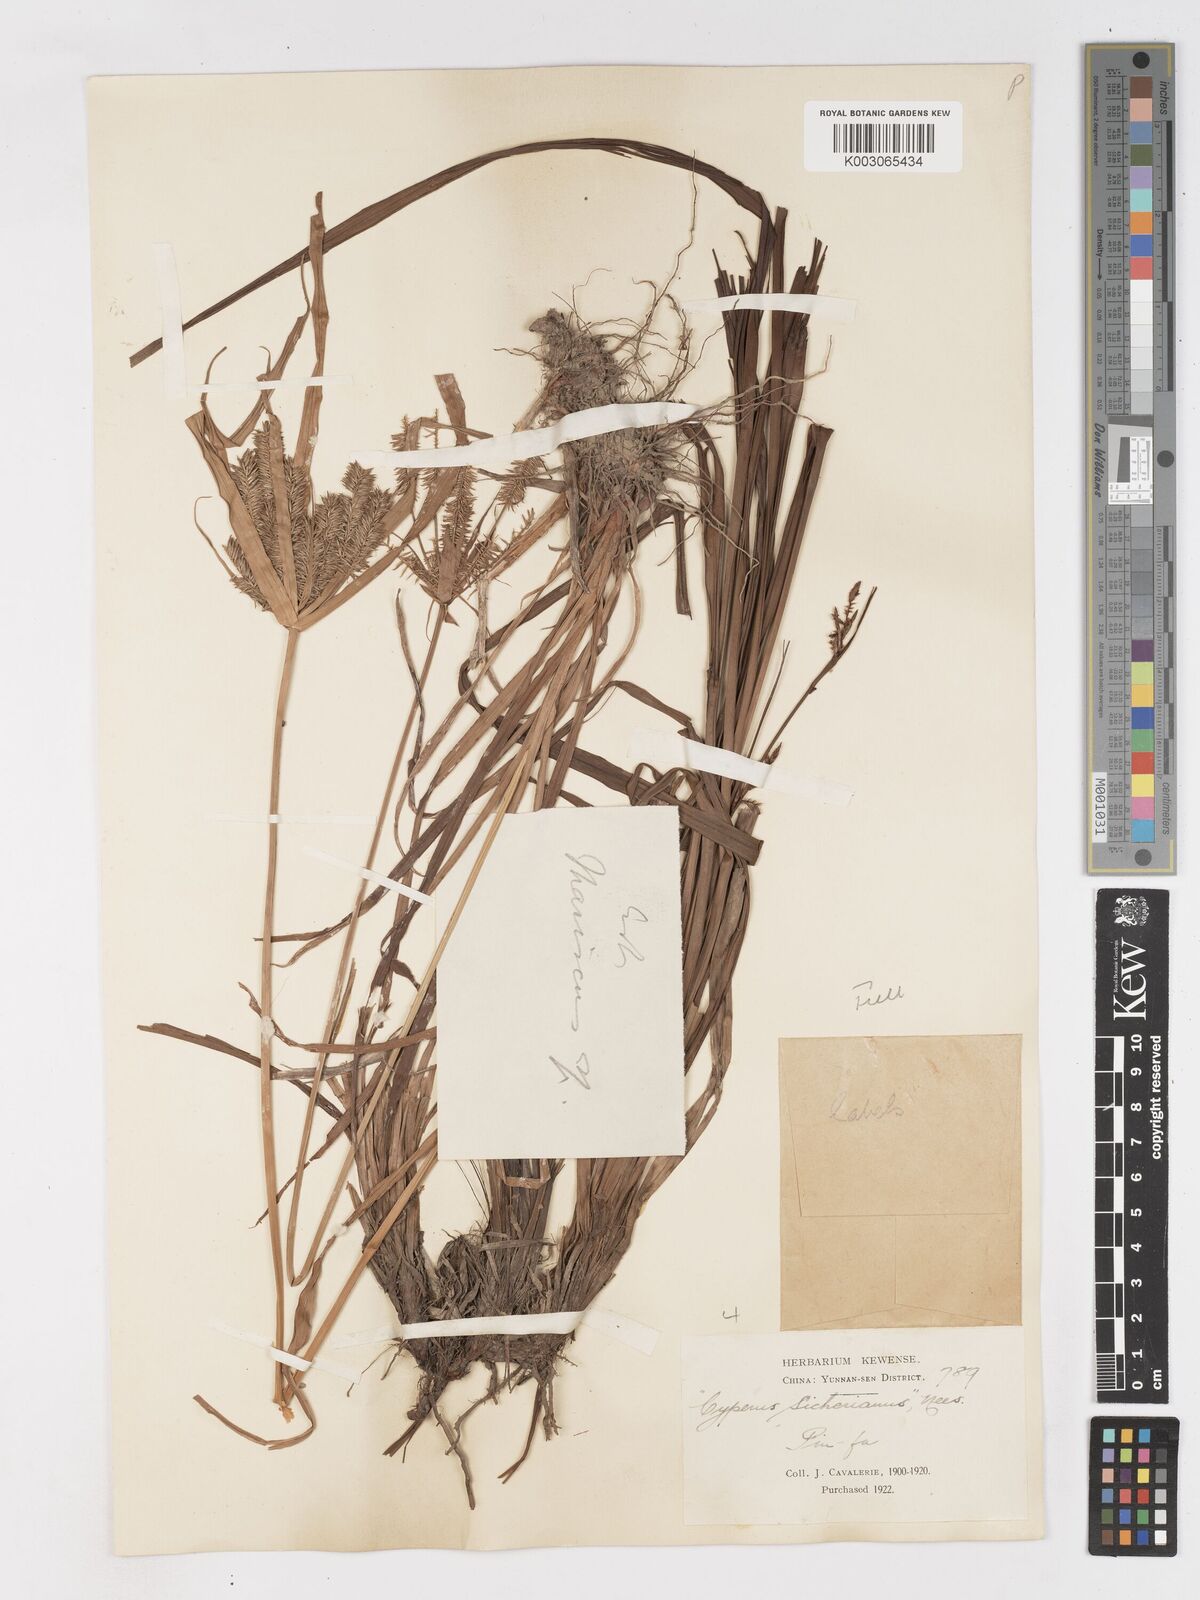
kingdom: Plantae
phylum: Tracheophyta
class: Liliopsida
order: Poales
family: Cyperaceae
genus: Cyperus
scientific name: Cyperus
